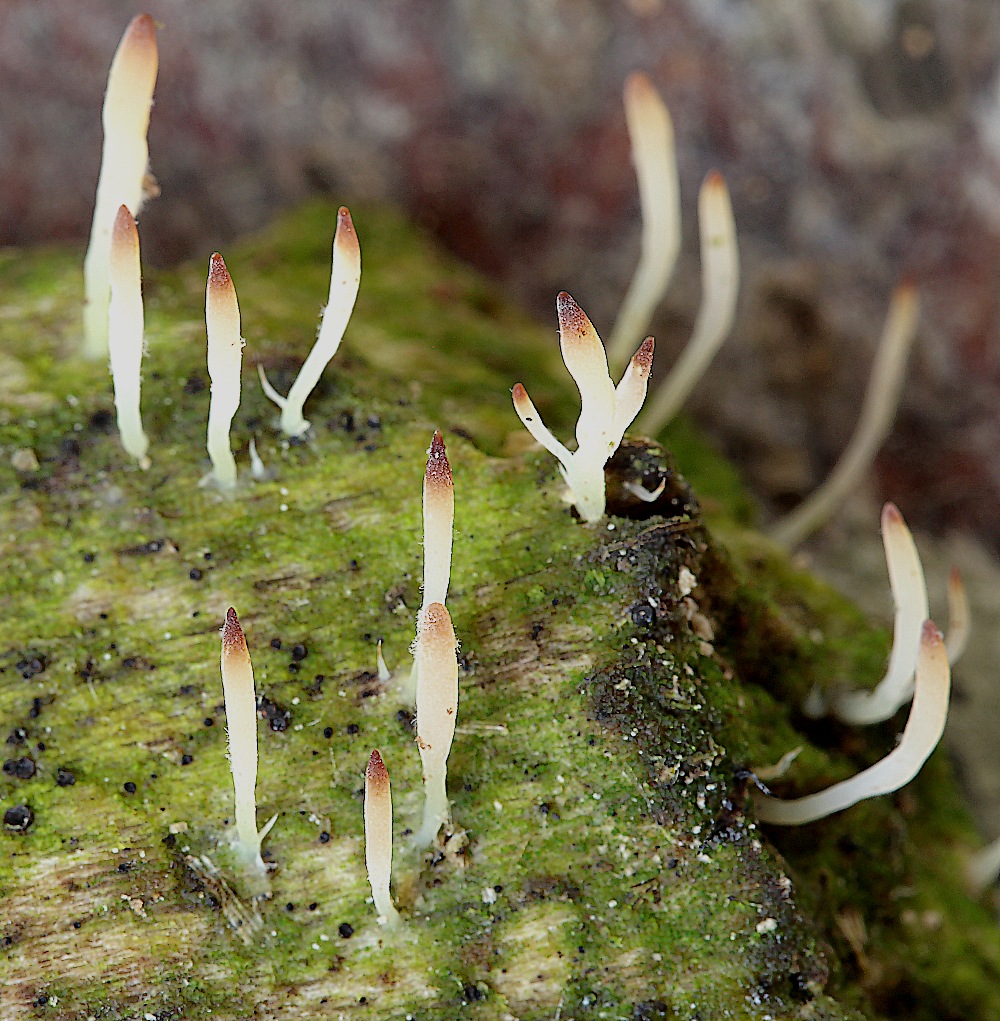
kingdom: Fungi
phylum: Basidiomycota
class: Agaricomycetes
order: Cantharellales
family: Hydnaceae
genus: Multiclavula
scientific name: Multiclavula mucida
